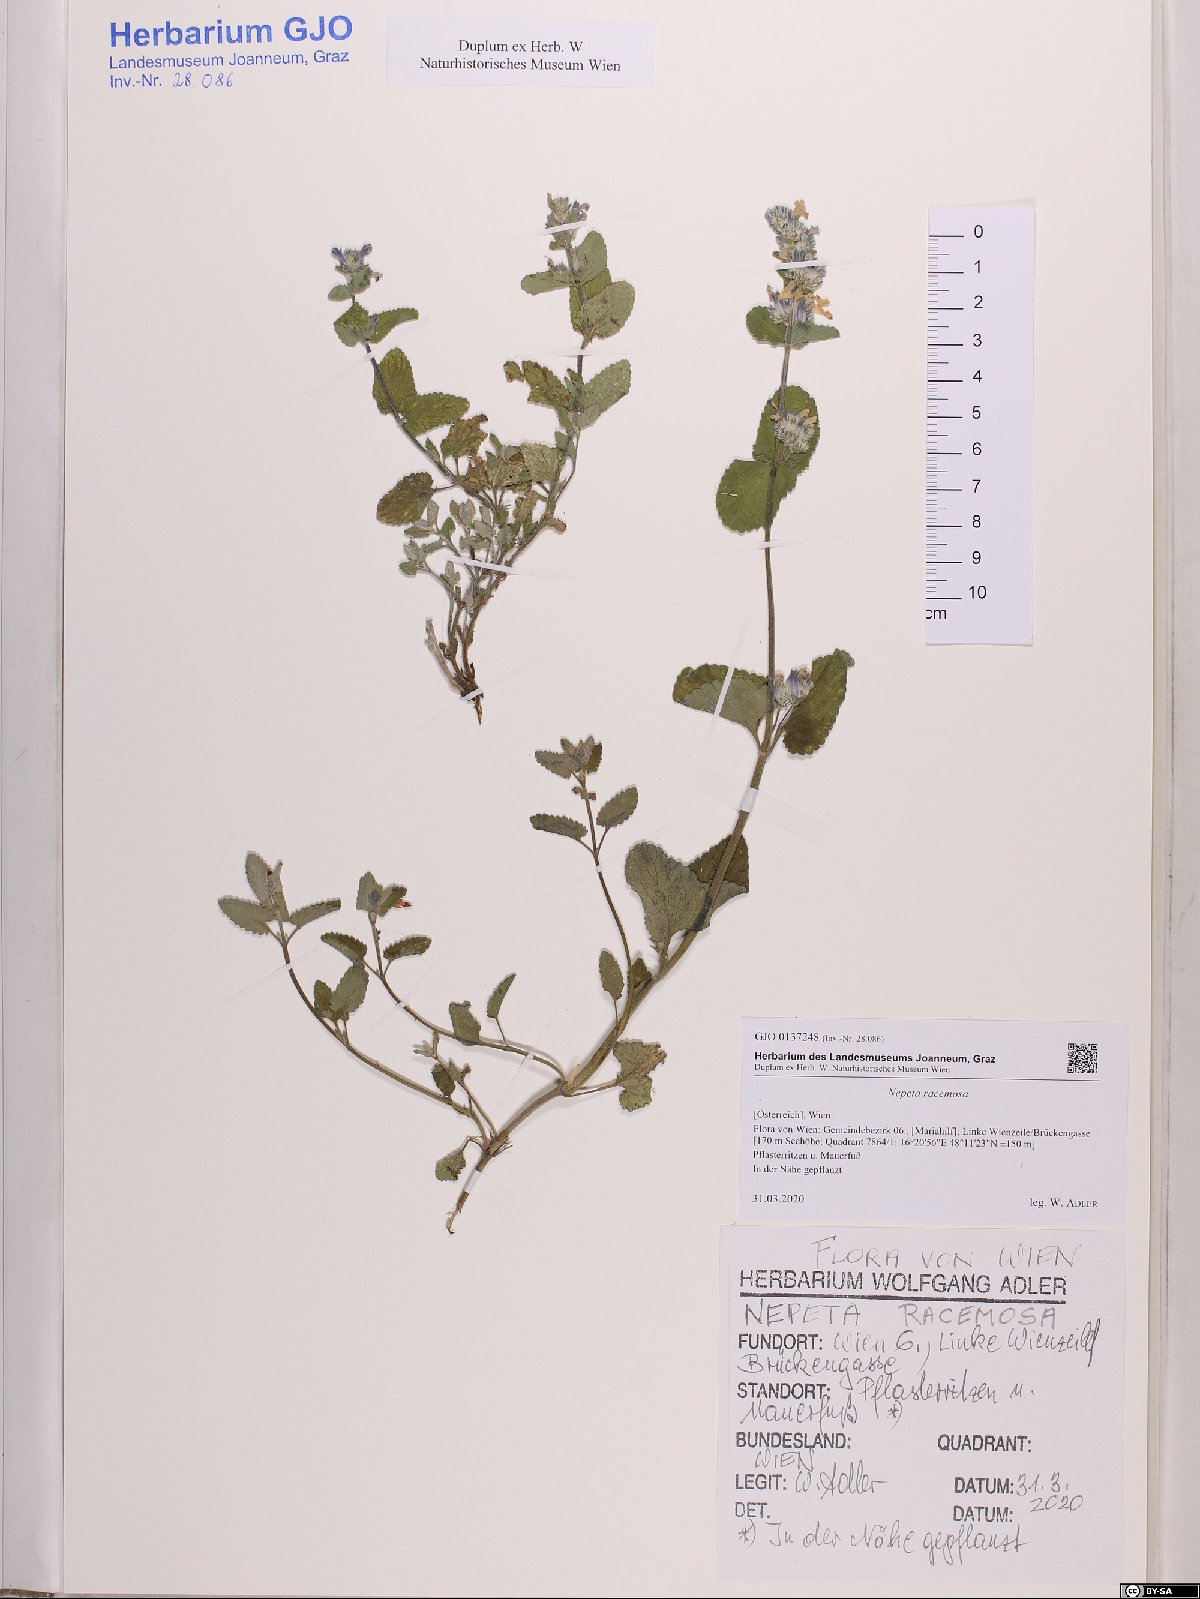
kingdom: Plantae
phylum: Tracheophyta
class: Magnoliopsida
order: Lamiales
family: Lamiaceae
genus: Nepeta
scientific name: Nepeta racemosa
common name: Raceme catnip
